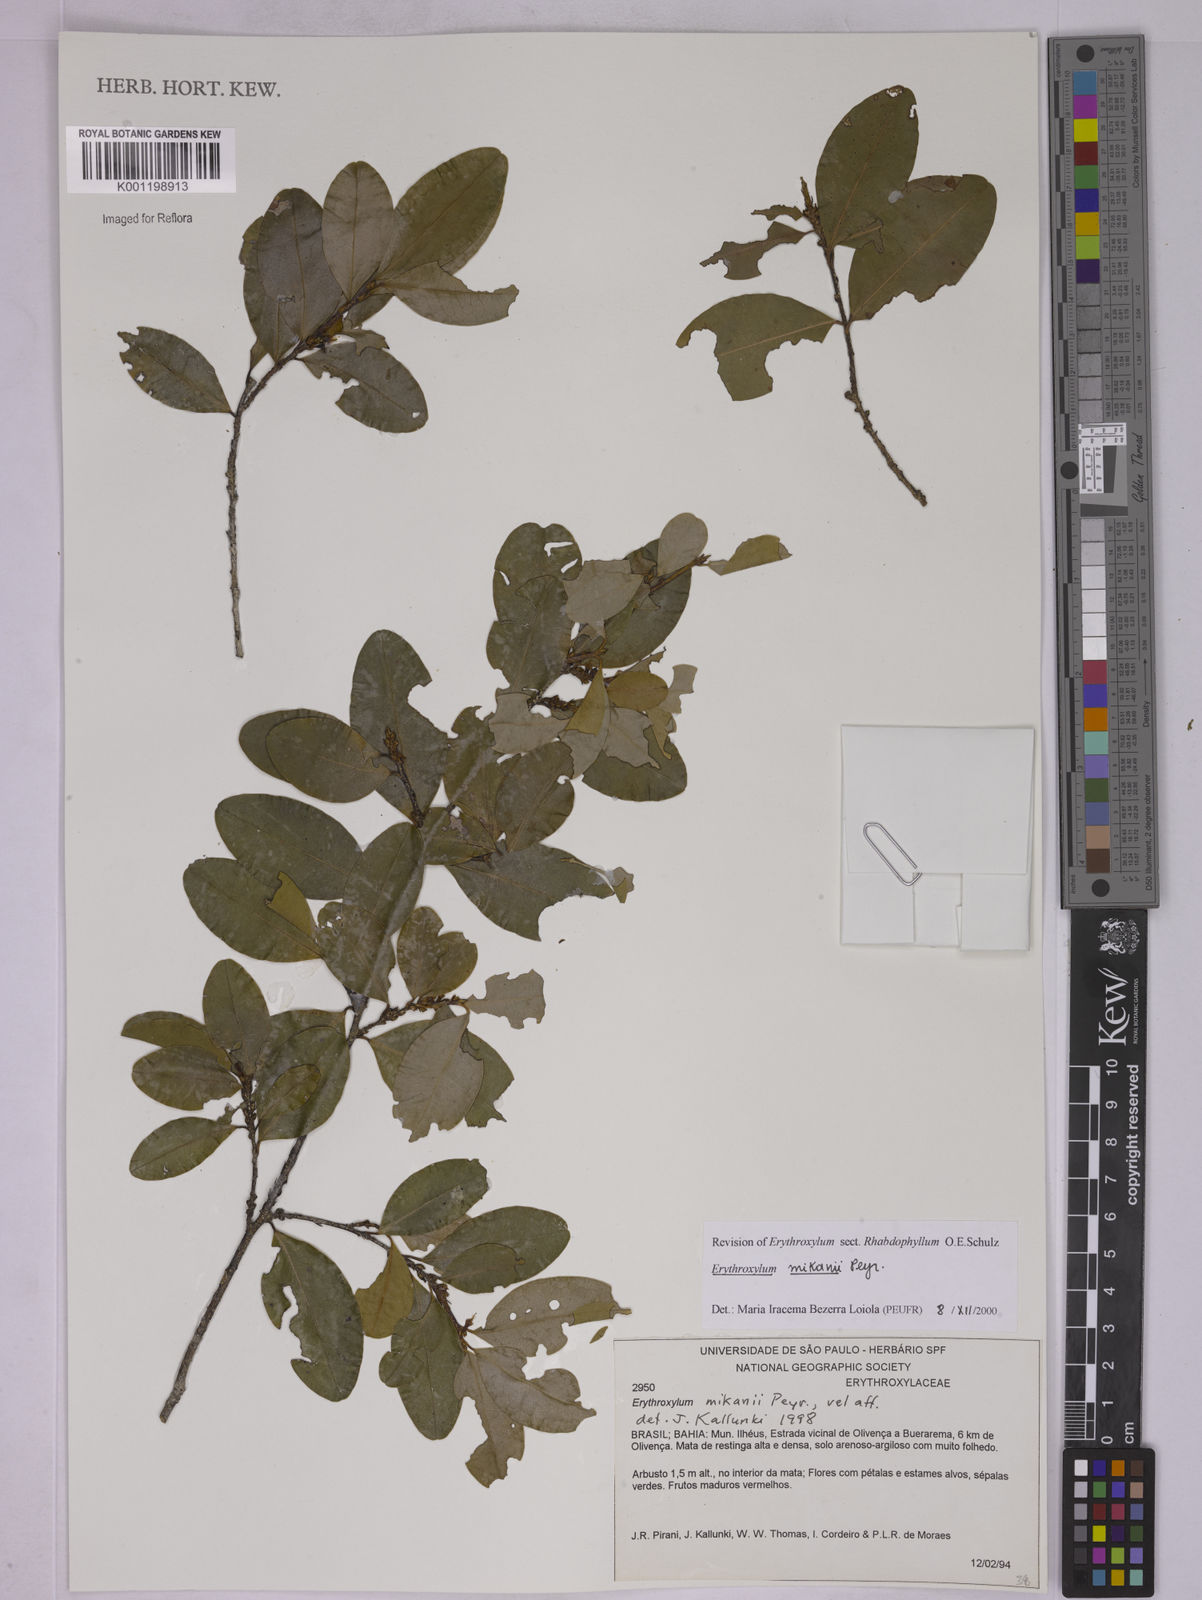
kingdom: Plantae
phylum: Tracheophyta
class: Magnoliopsida
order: Malpighiales
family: Erythroxylaceae
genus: Erythroxylum
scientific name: Erythroxylum mikanii
